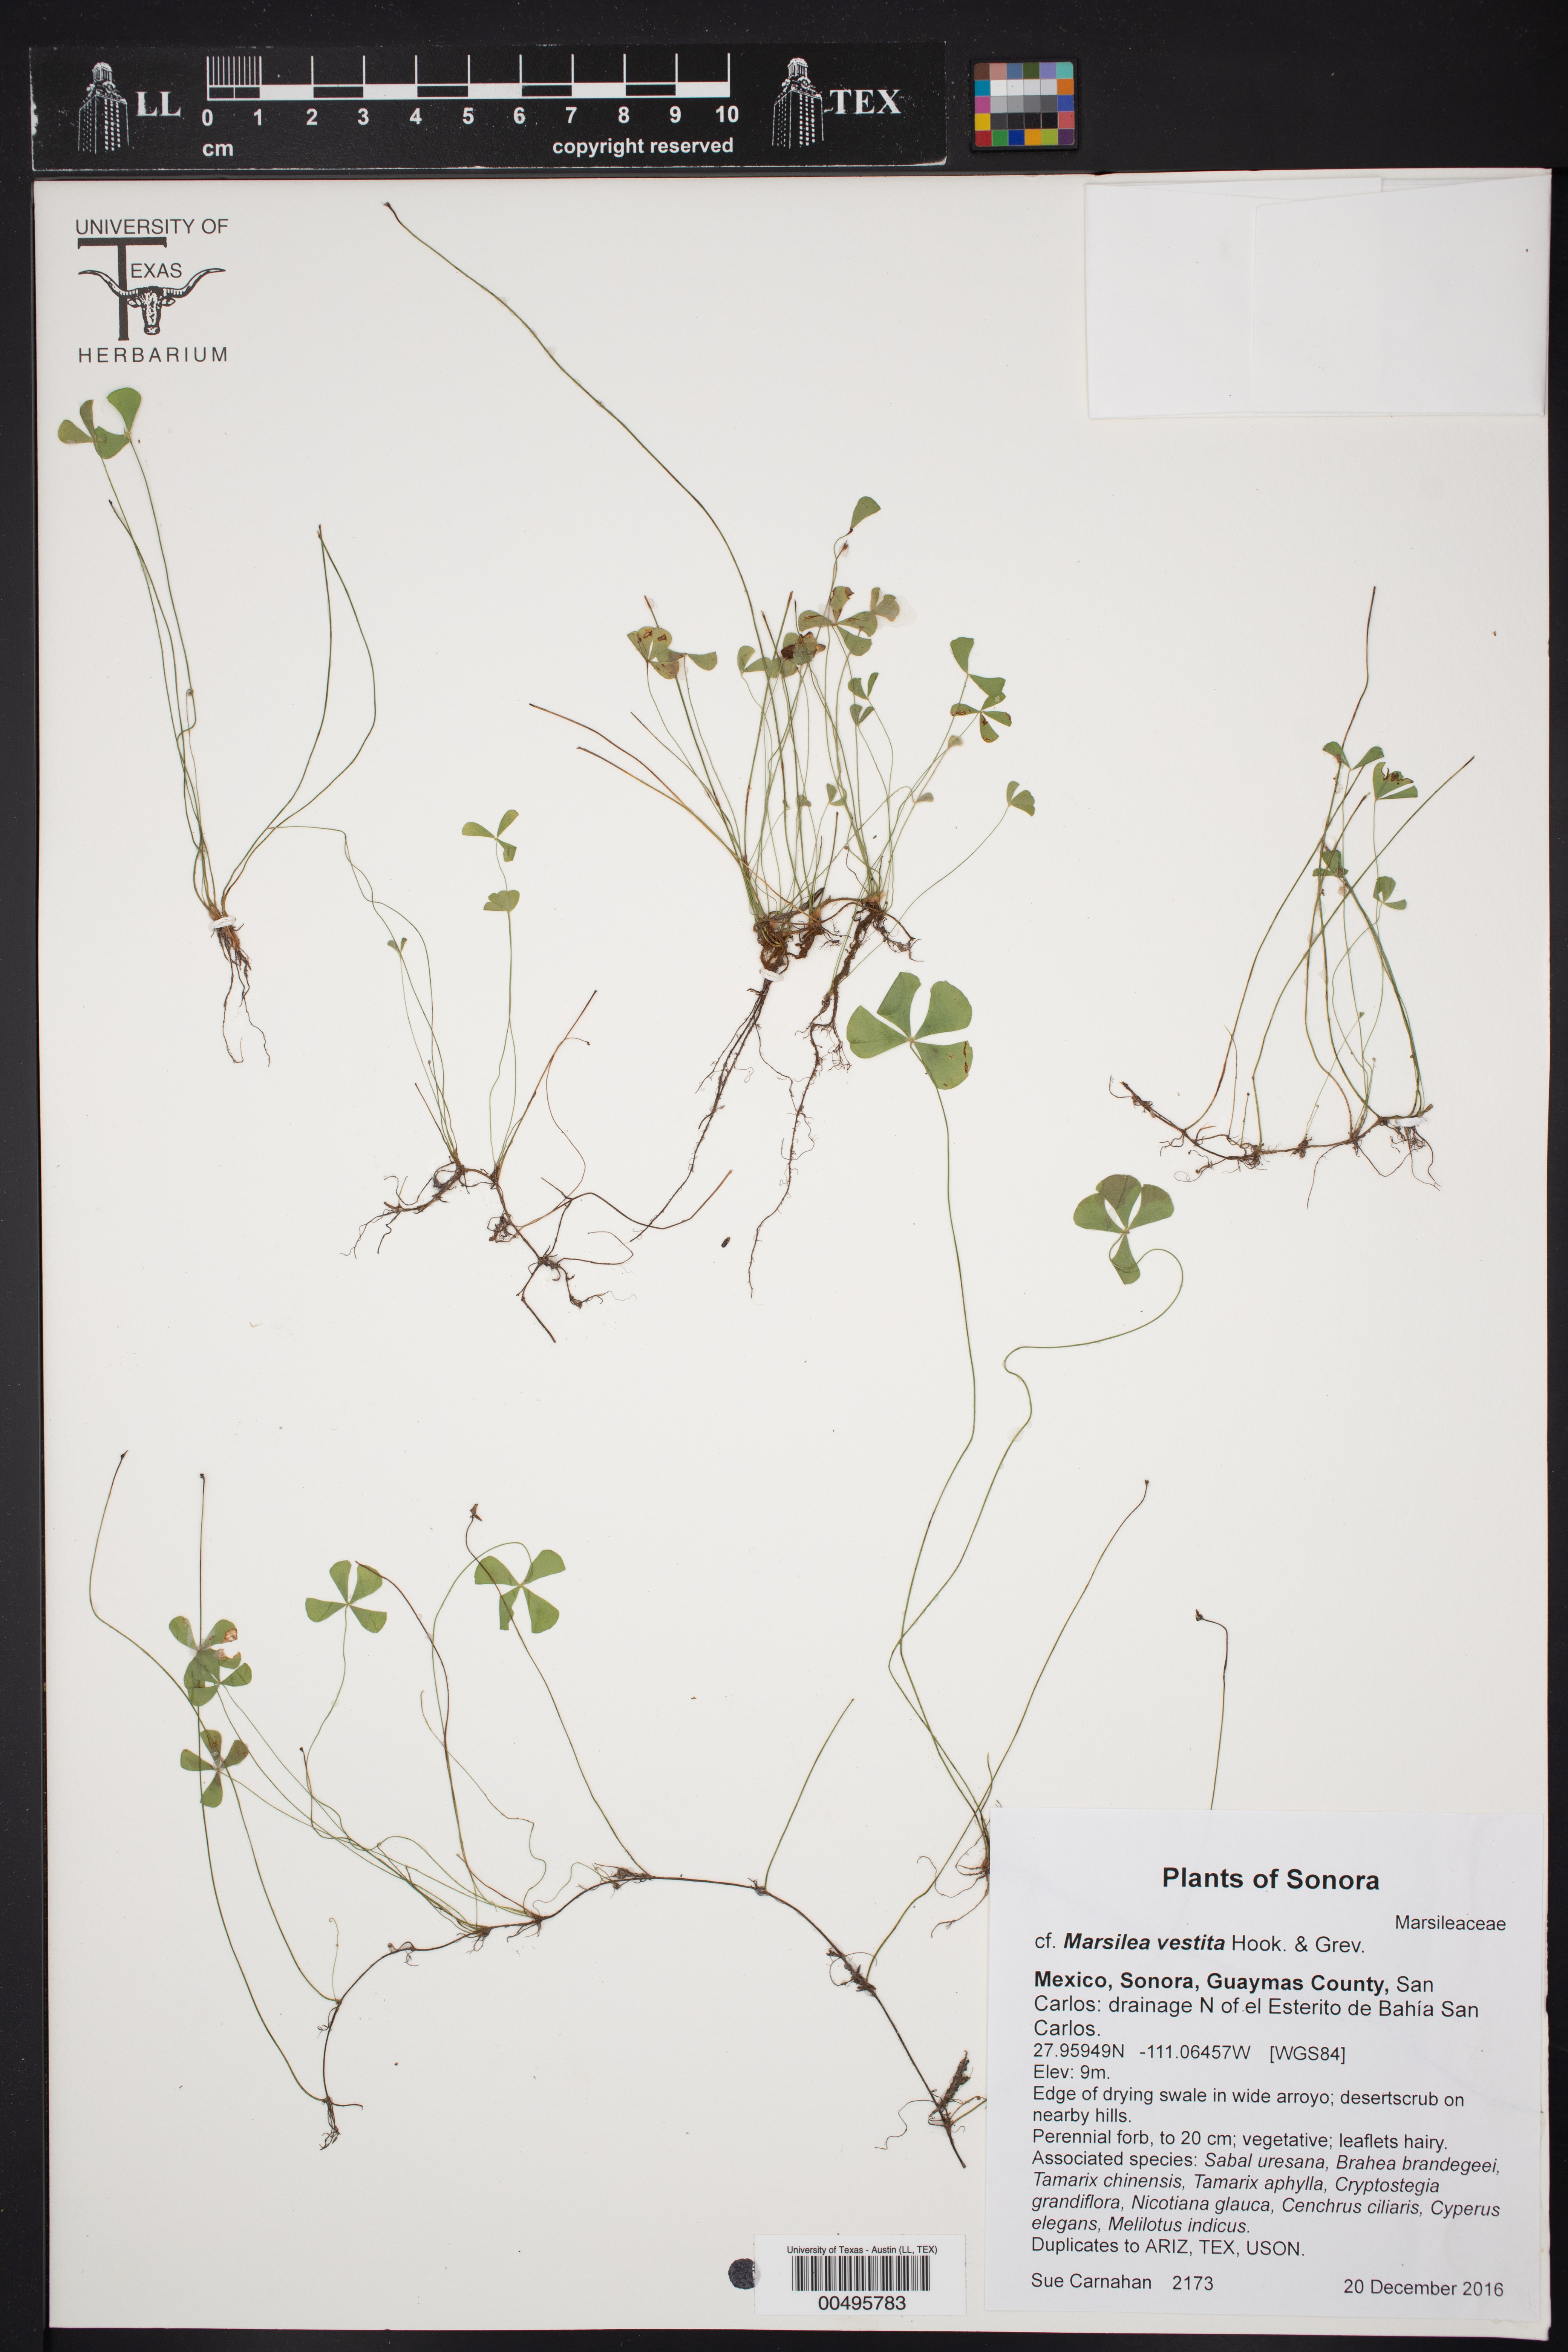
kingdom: Plantae
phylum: Tracheophyta
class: Polypodiopsida
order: Salviniales
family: Marsileaceae
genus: Marsilea
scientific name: Marsilea vestita
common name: Hooked-pepperwort
